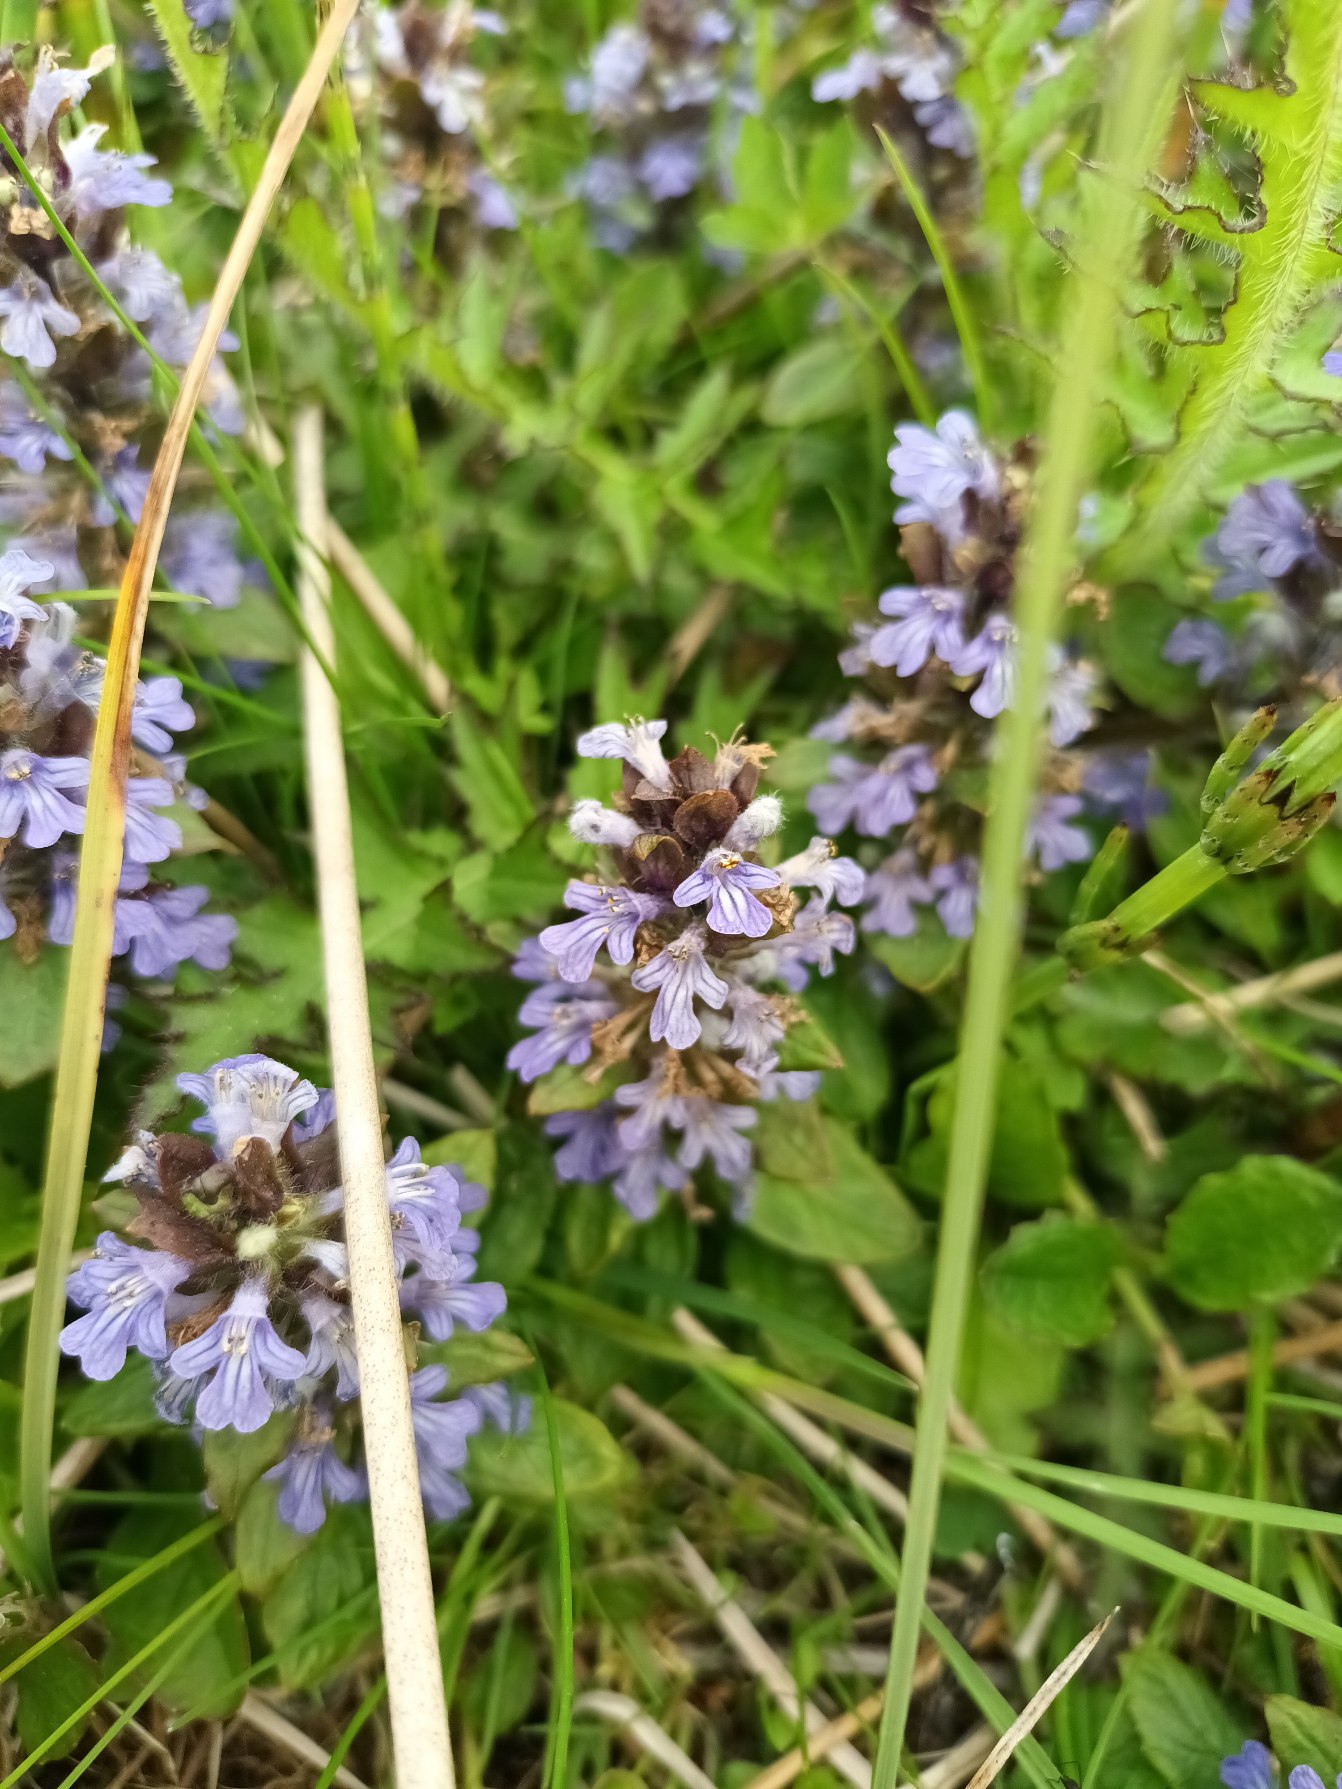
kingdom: Plantae
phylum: Tracheophyta
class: Magnoliopsida
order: Lamiales
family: Lamiaceae
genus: Ajuga
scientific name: Ajuga reptans
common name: Krybende læbeløs
